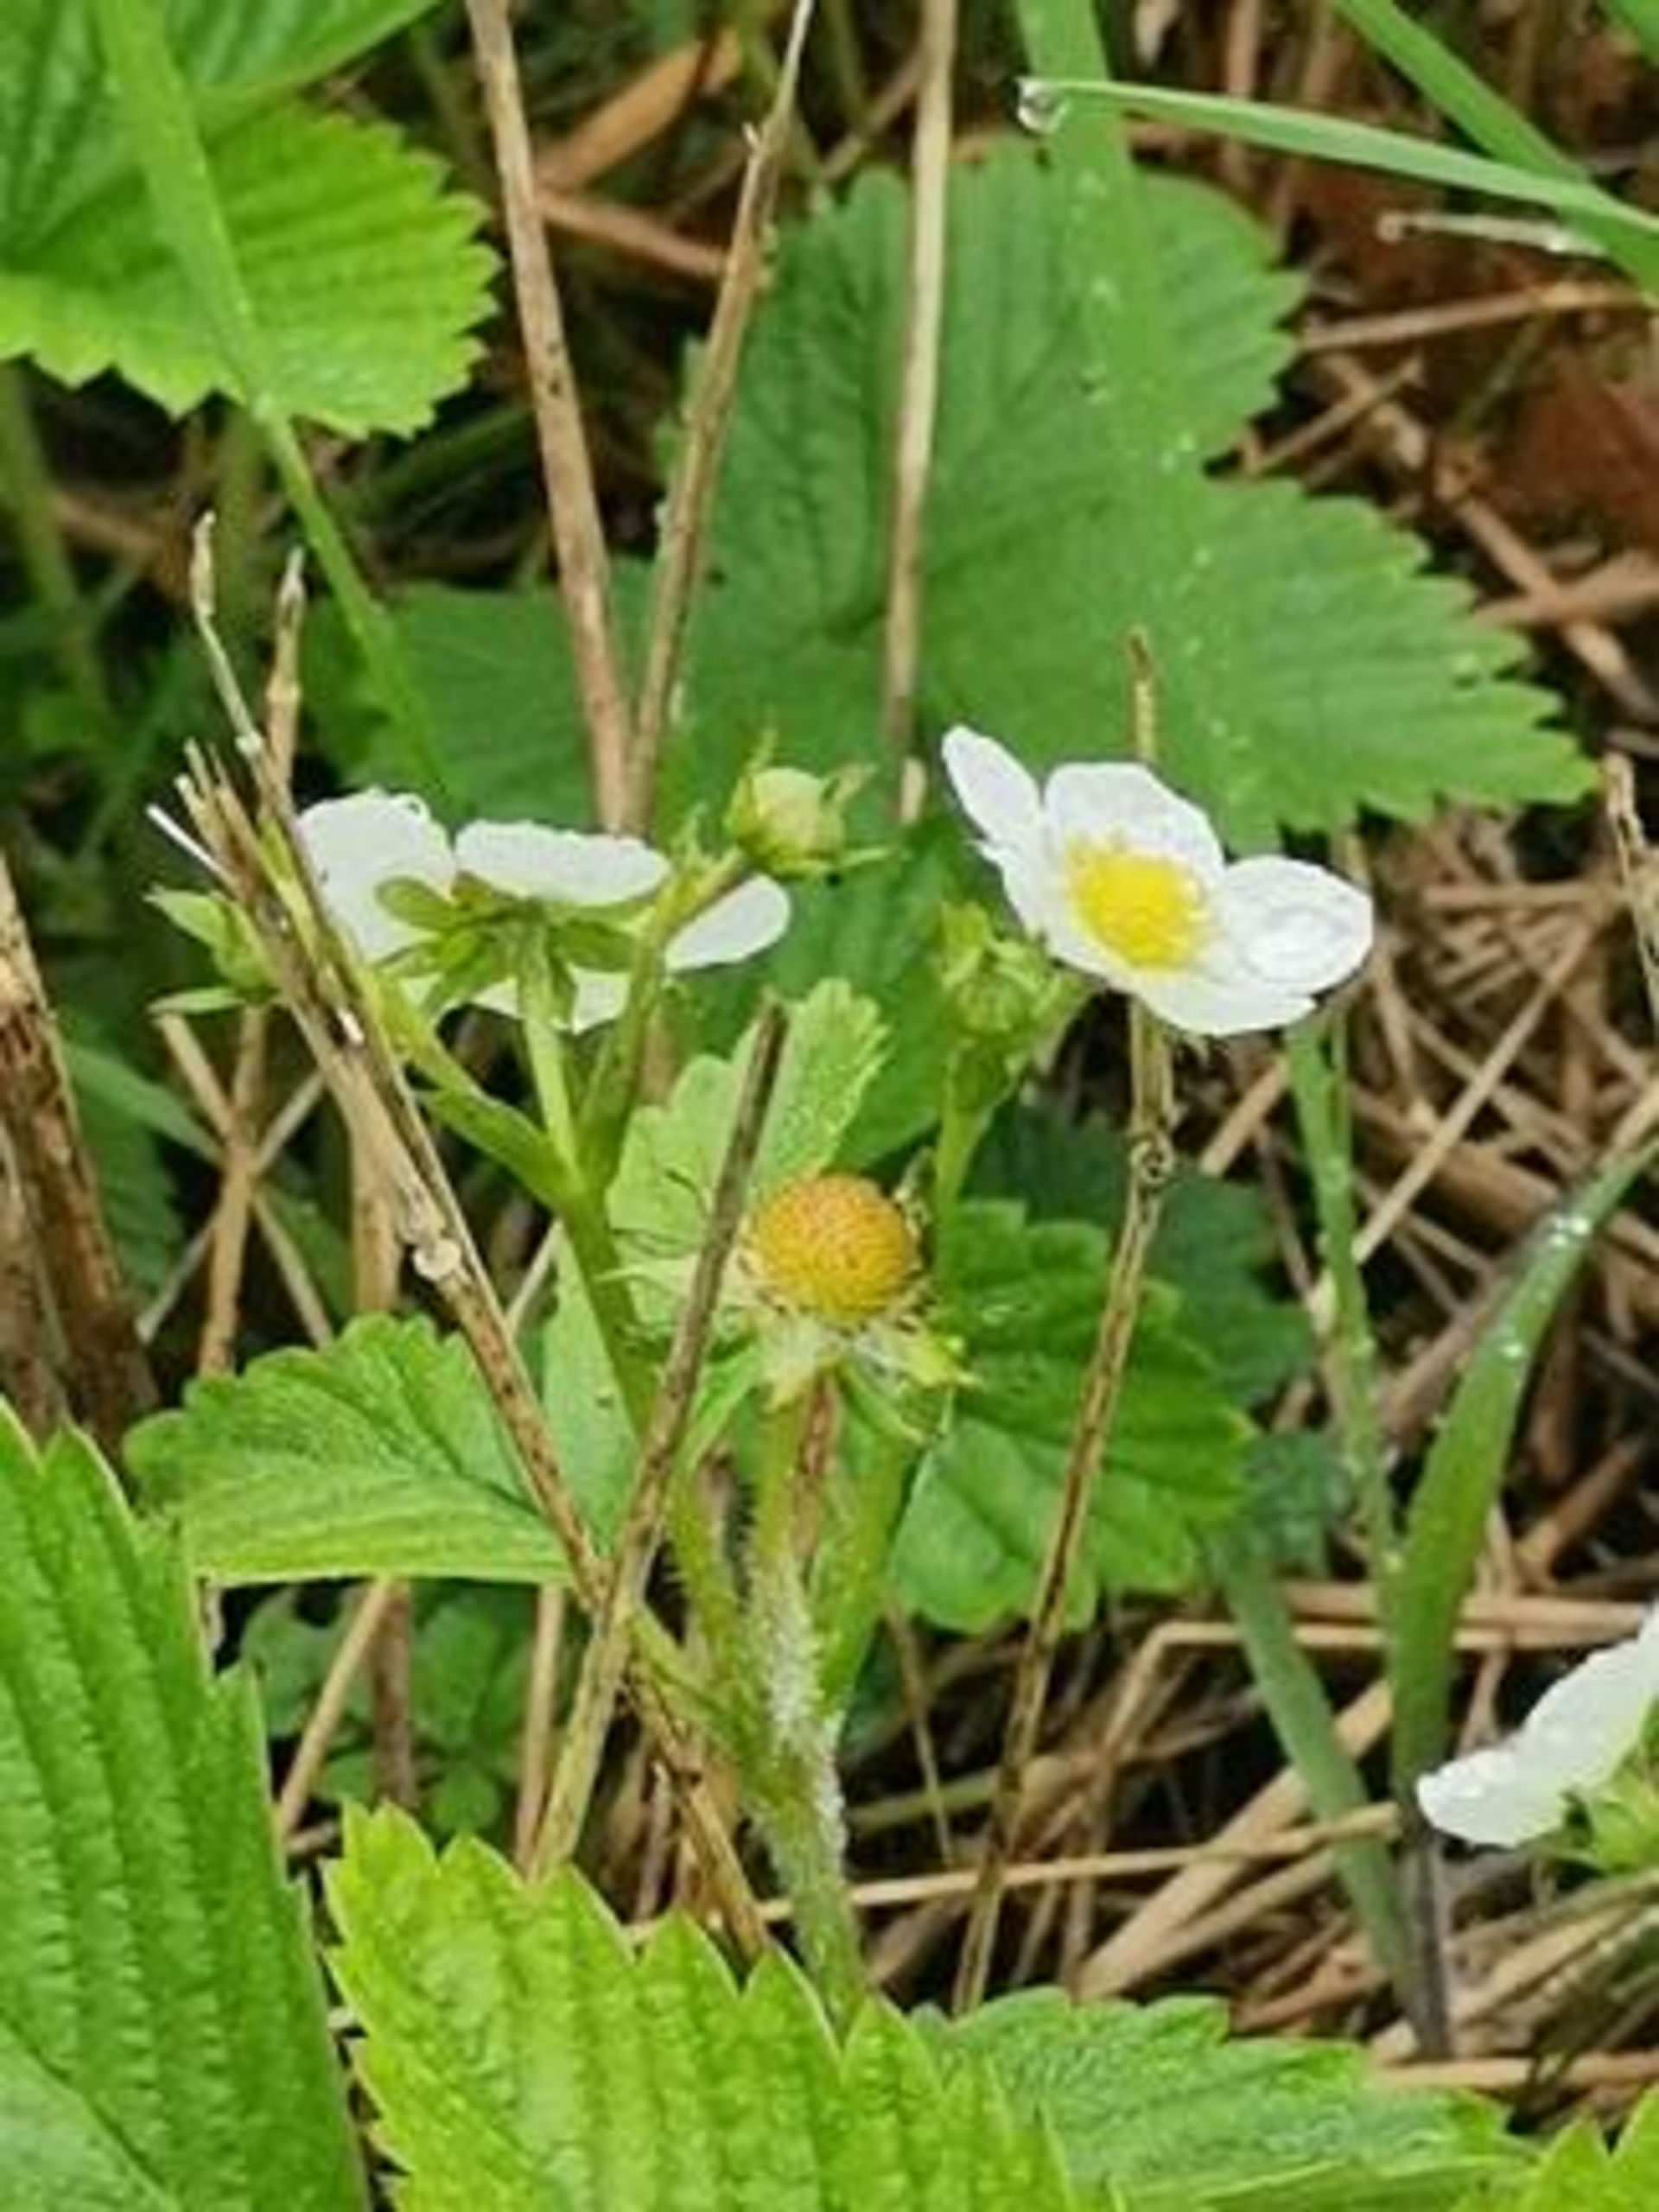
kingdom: Plantae
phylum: Tracheophyta
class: Magnoliopsida
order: Rosales
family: Rosaceae
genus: Fragaria
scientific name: Fragaria vesca
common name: Skov-jordbær
